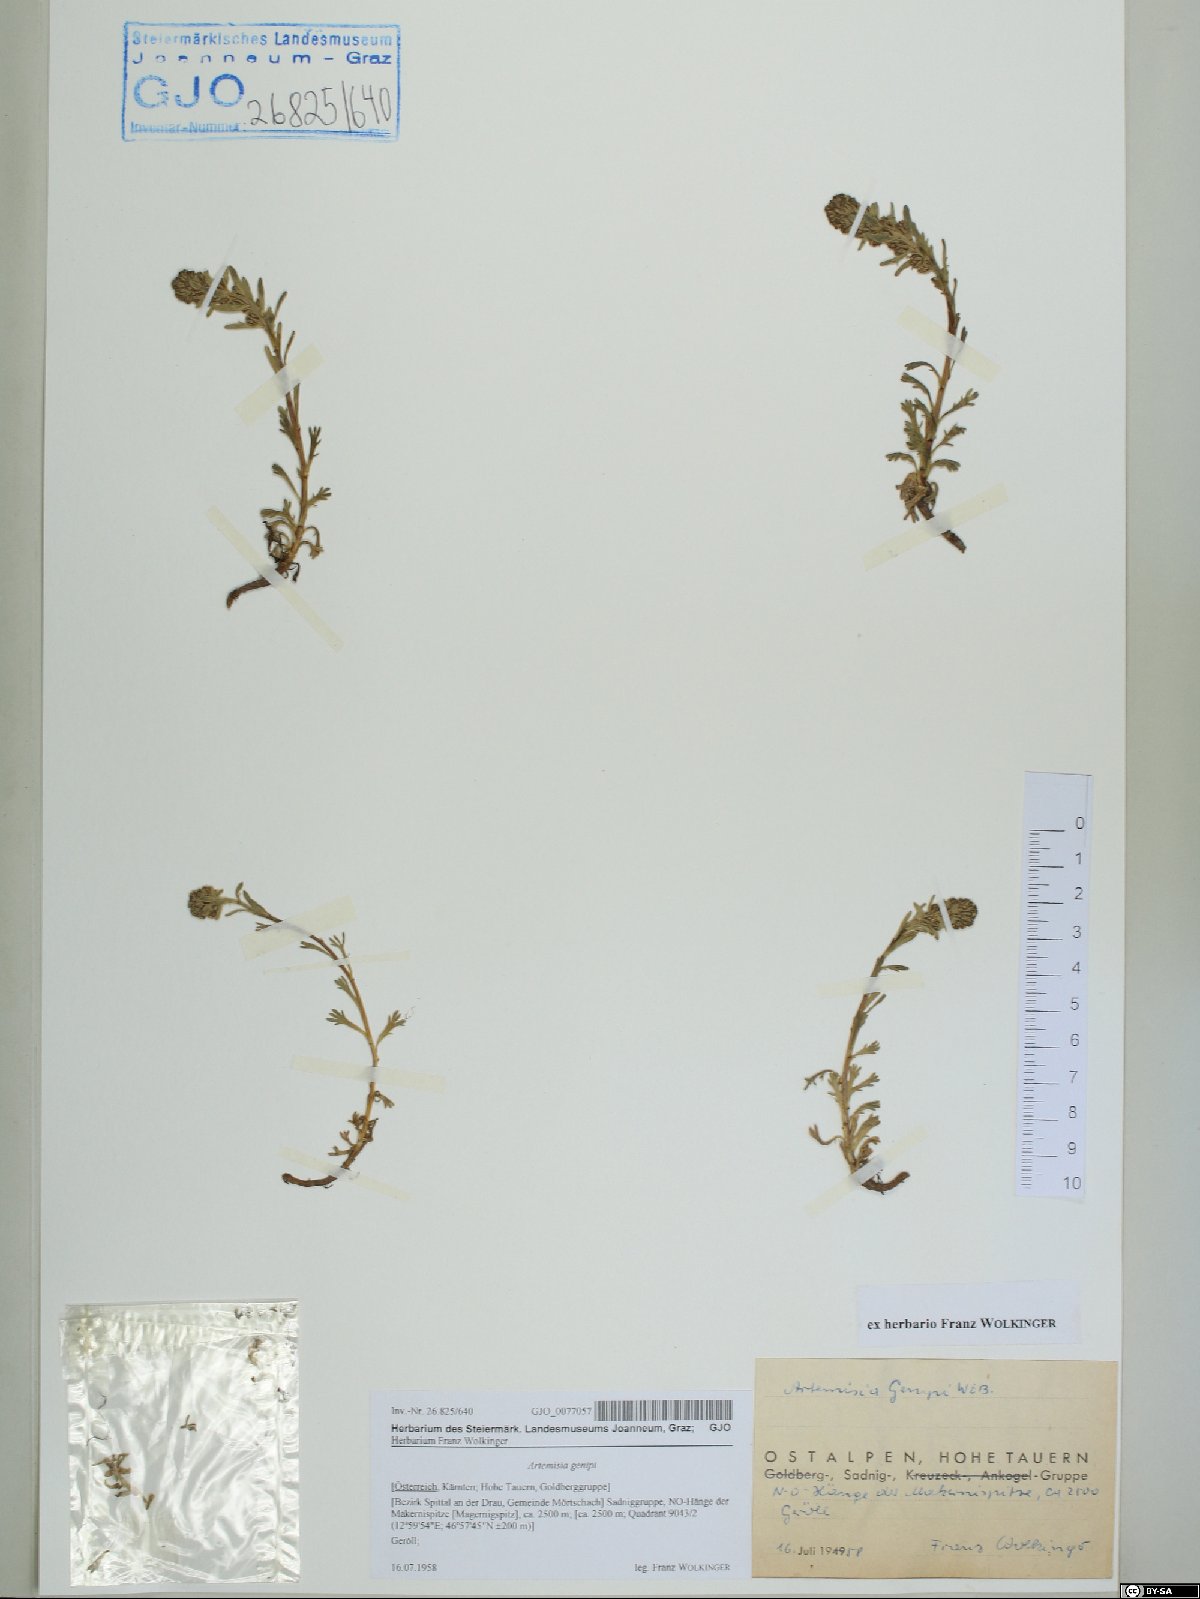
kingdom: Plantae
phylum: Tracheophyta
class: Magnoliopsida
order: Asterales
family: Asteraceae
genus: Artemisia
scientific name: Artemisia genipi
